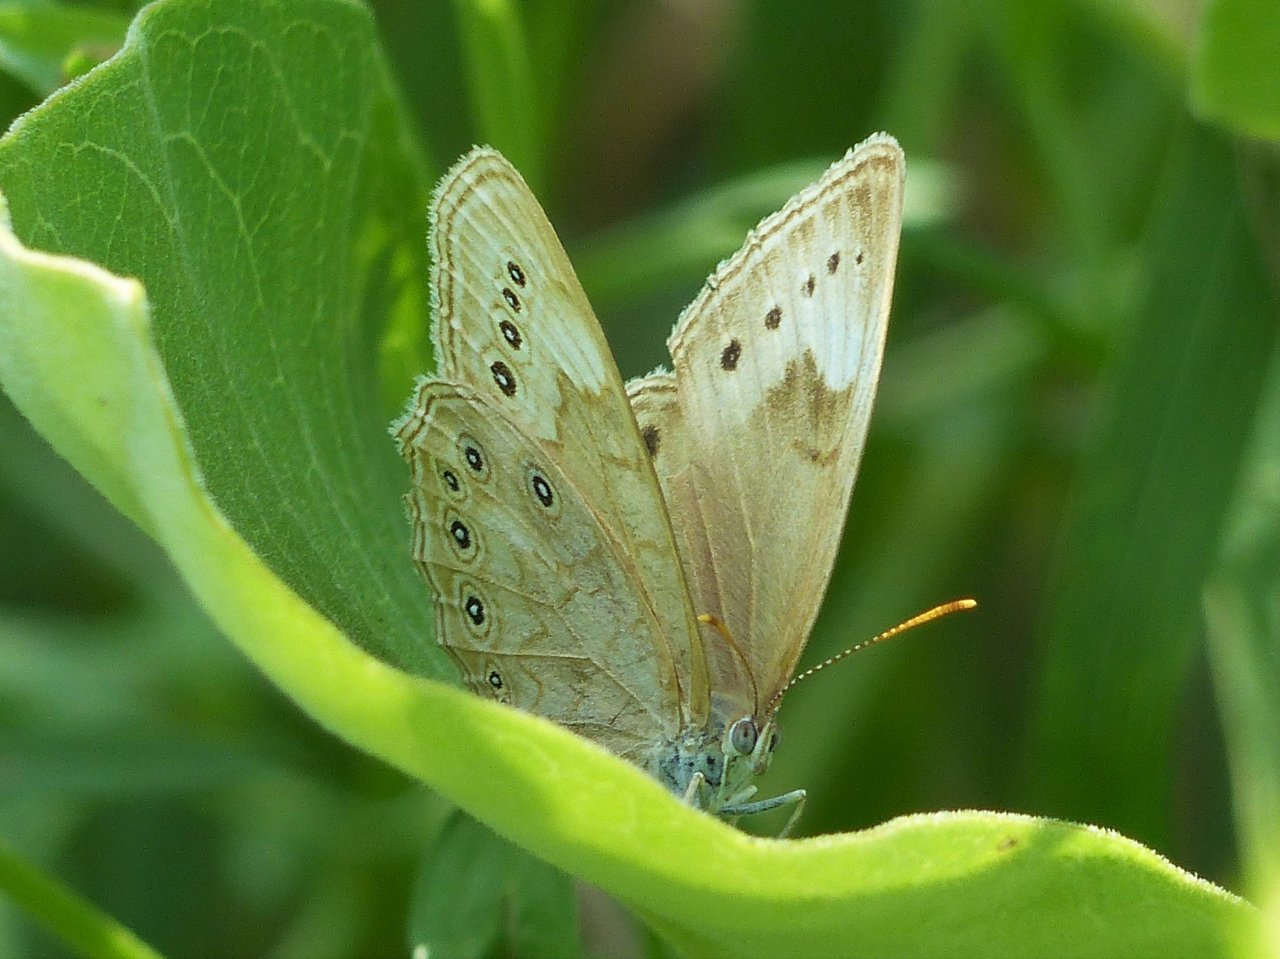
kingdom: Animalia
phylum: Arthropoda
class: Insecta
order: Lepidoptera
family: Nymphalidae
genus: Lethe
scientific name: Lethe eurydice
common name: Eyed Brown
